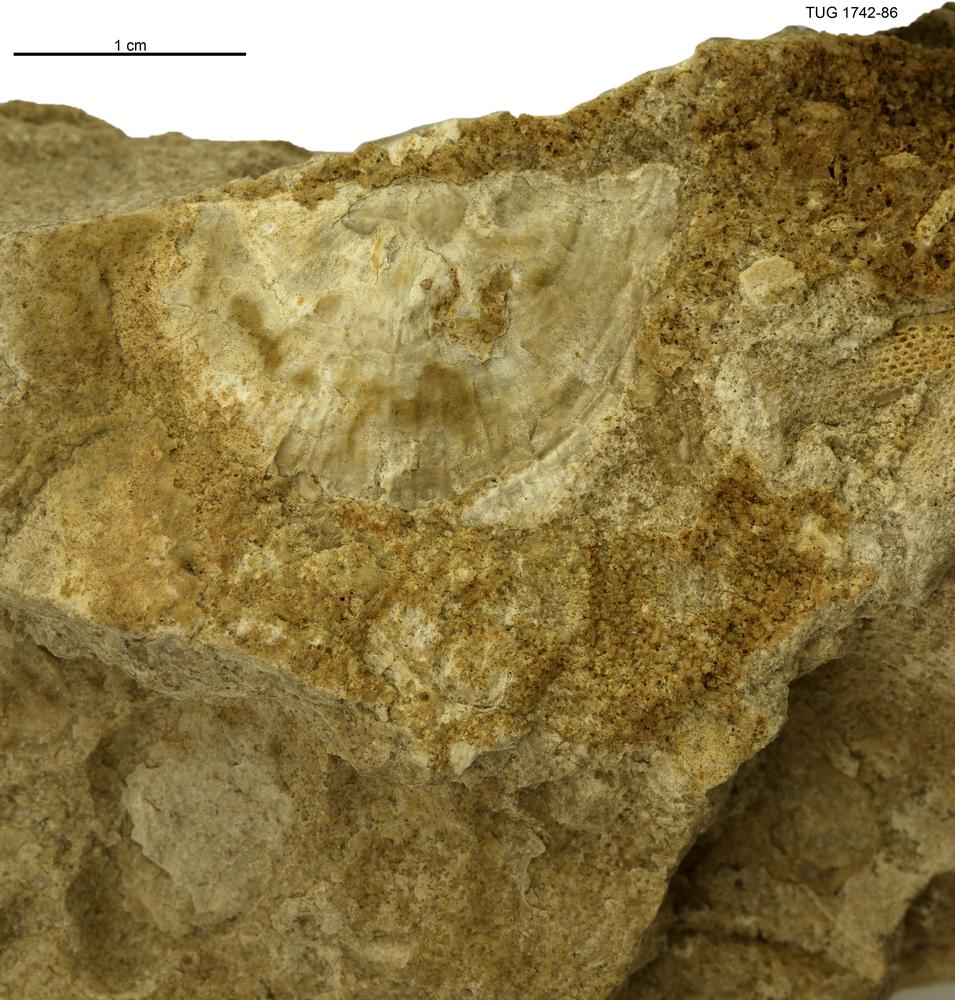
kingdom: Animalia
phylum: Brachiopoda
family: Strophomenidae
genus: Holtedahlina
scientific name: Holtedahlina
